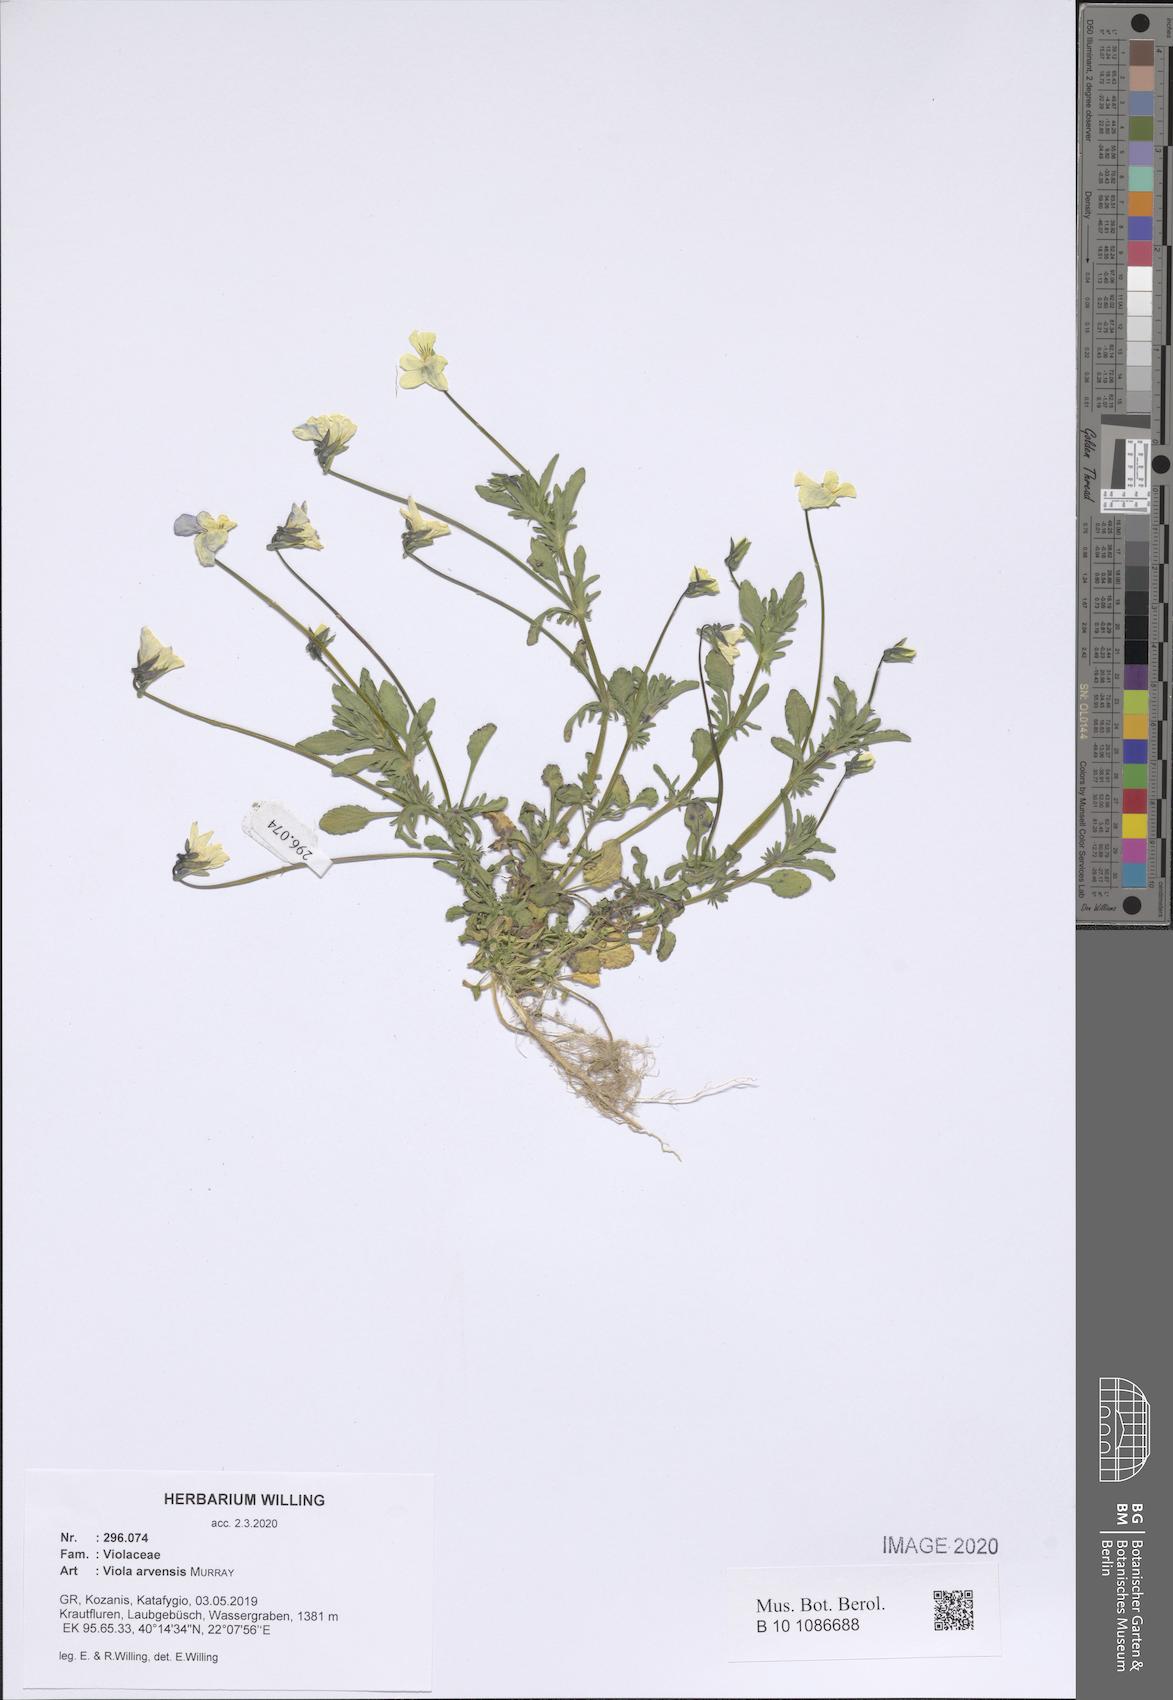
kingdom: Plantae
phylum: Tracheophyta
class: Magnoliopsida
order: Malpighiales
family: Violaceae
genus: Viola
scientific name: Viola arvensis
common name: Field pansy
